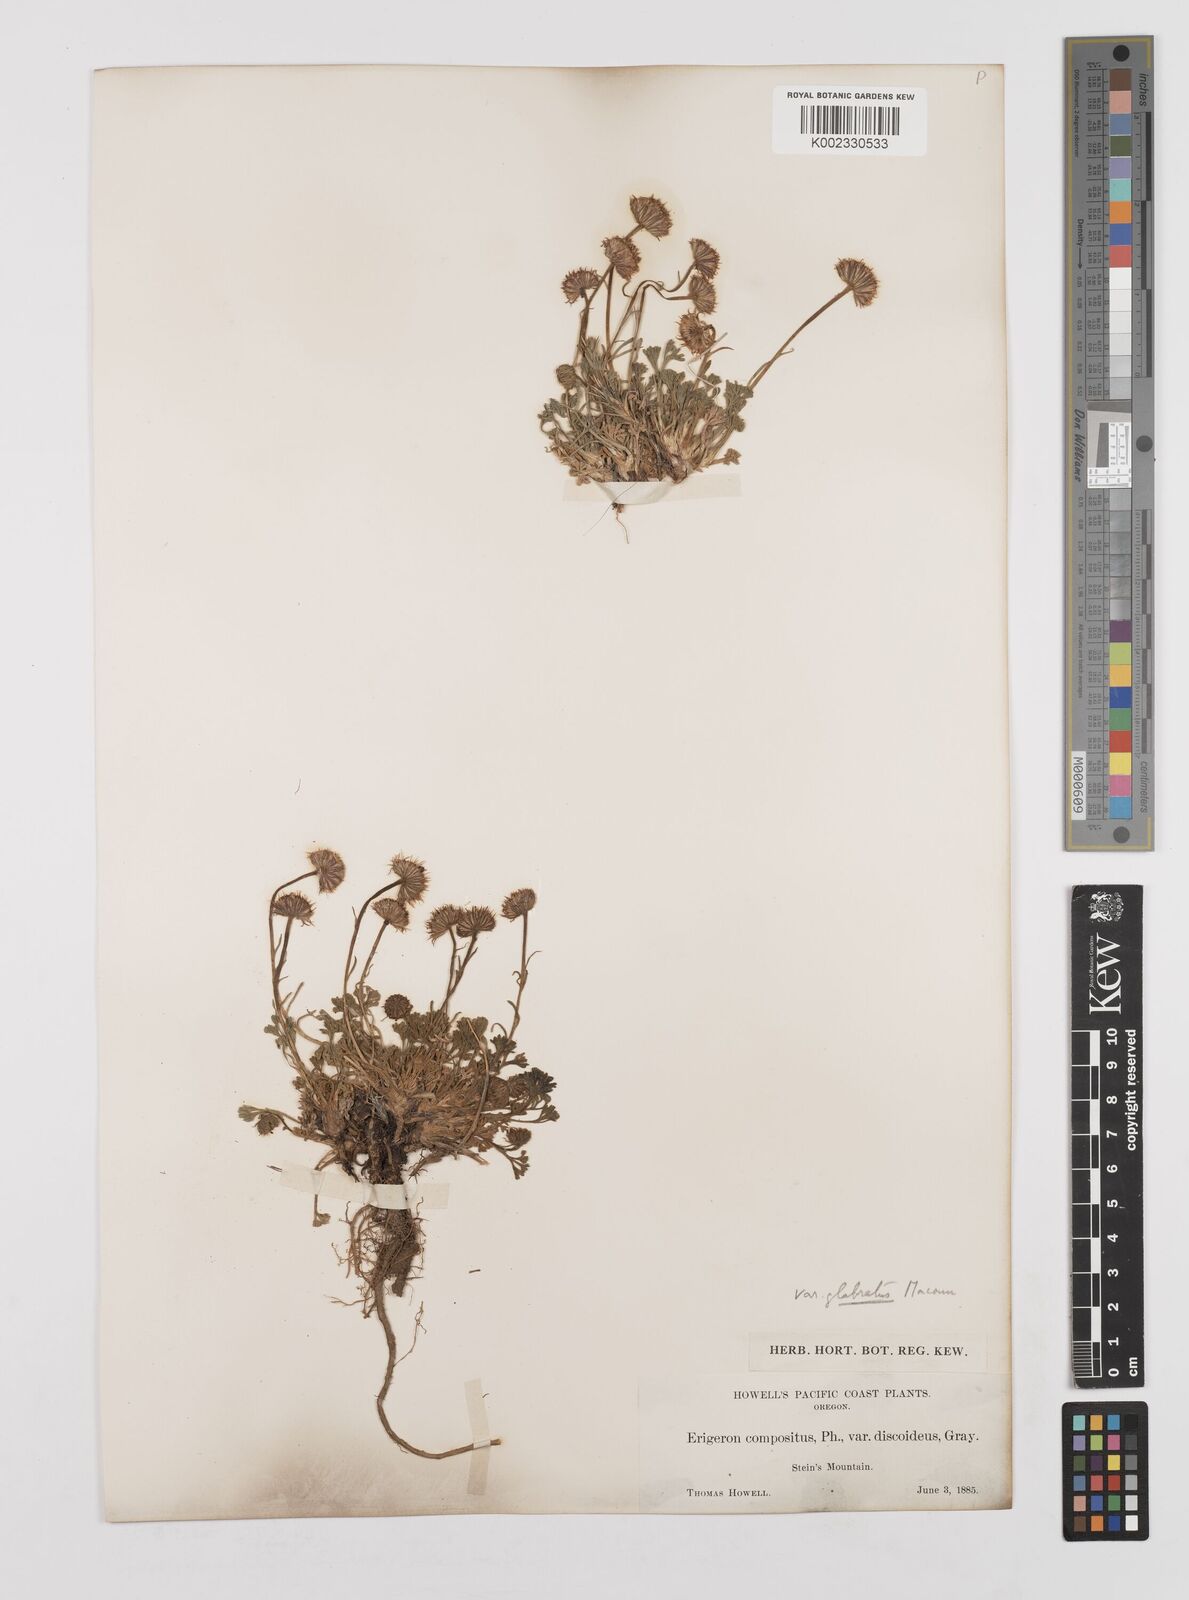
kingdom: Plantae
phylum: Tracheophyta
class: Magnoliopsida
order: Asterales
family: Asteraceae
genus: Erigeron
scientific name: Erigeron compositus
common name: Dwarf mountain fleabane
